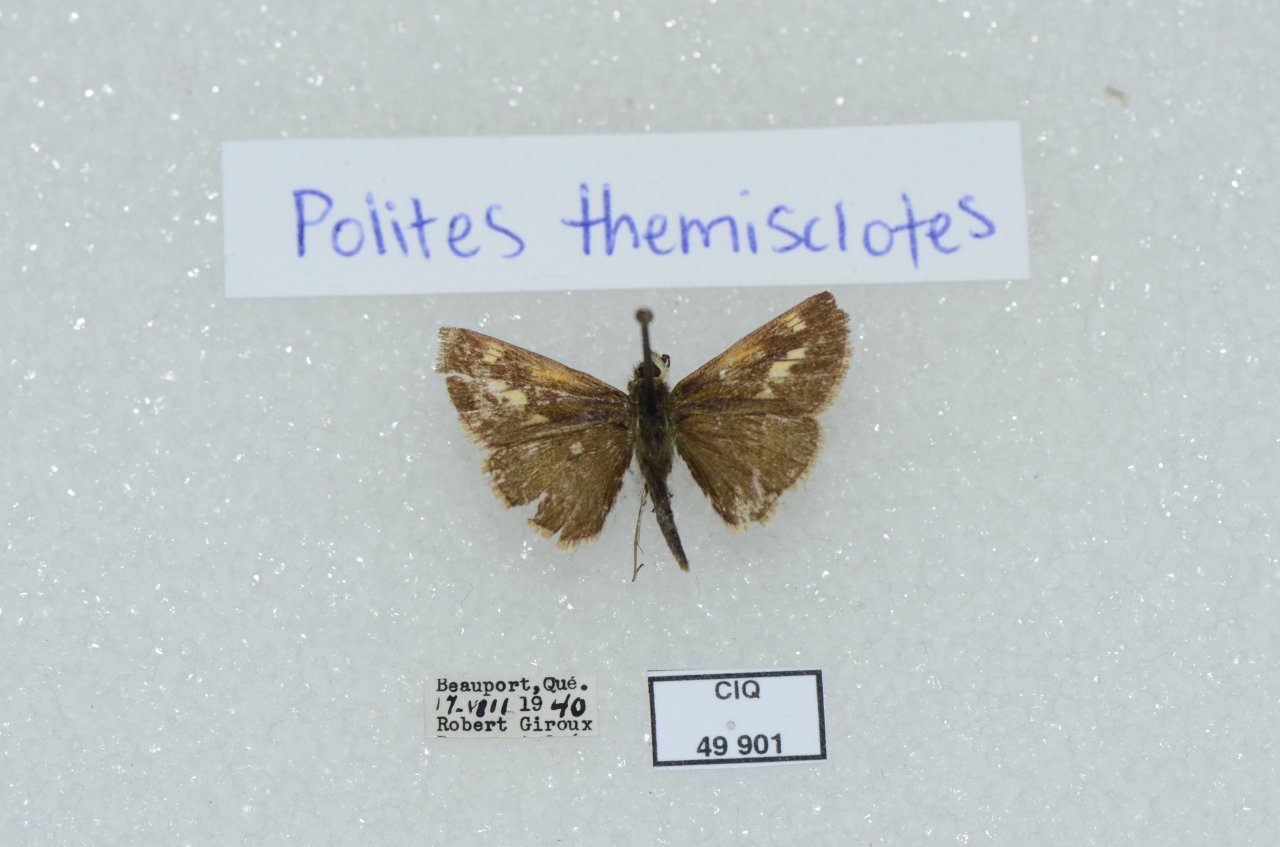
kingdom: Animalia
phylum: Arthropoda
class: Insecta
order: Lepidoptera
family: Hesperiidae
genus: Polites
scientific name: Polites themistocles
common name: Tawny-edged Skipper
